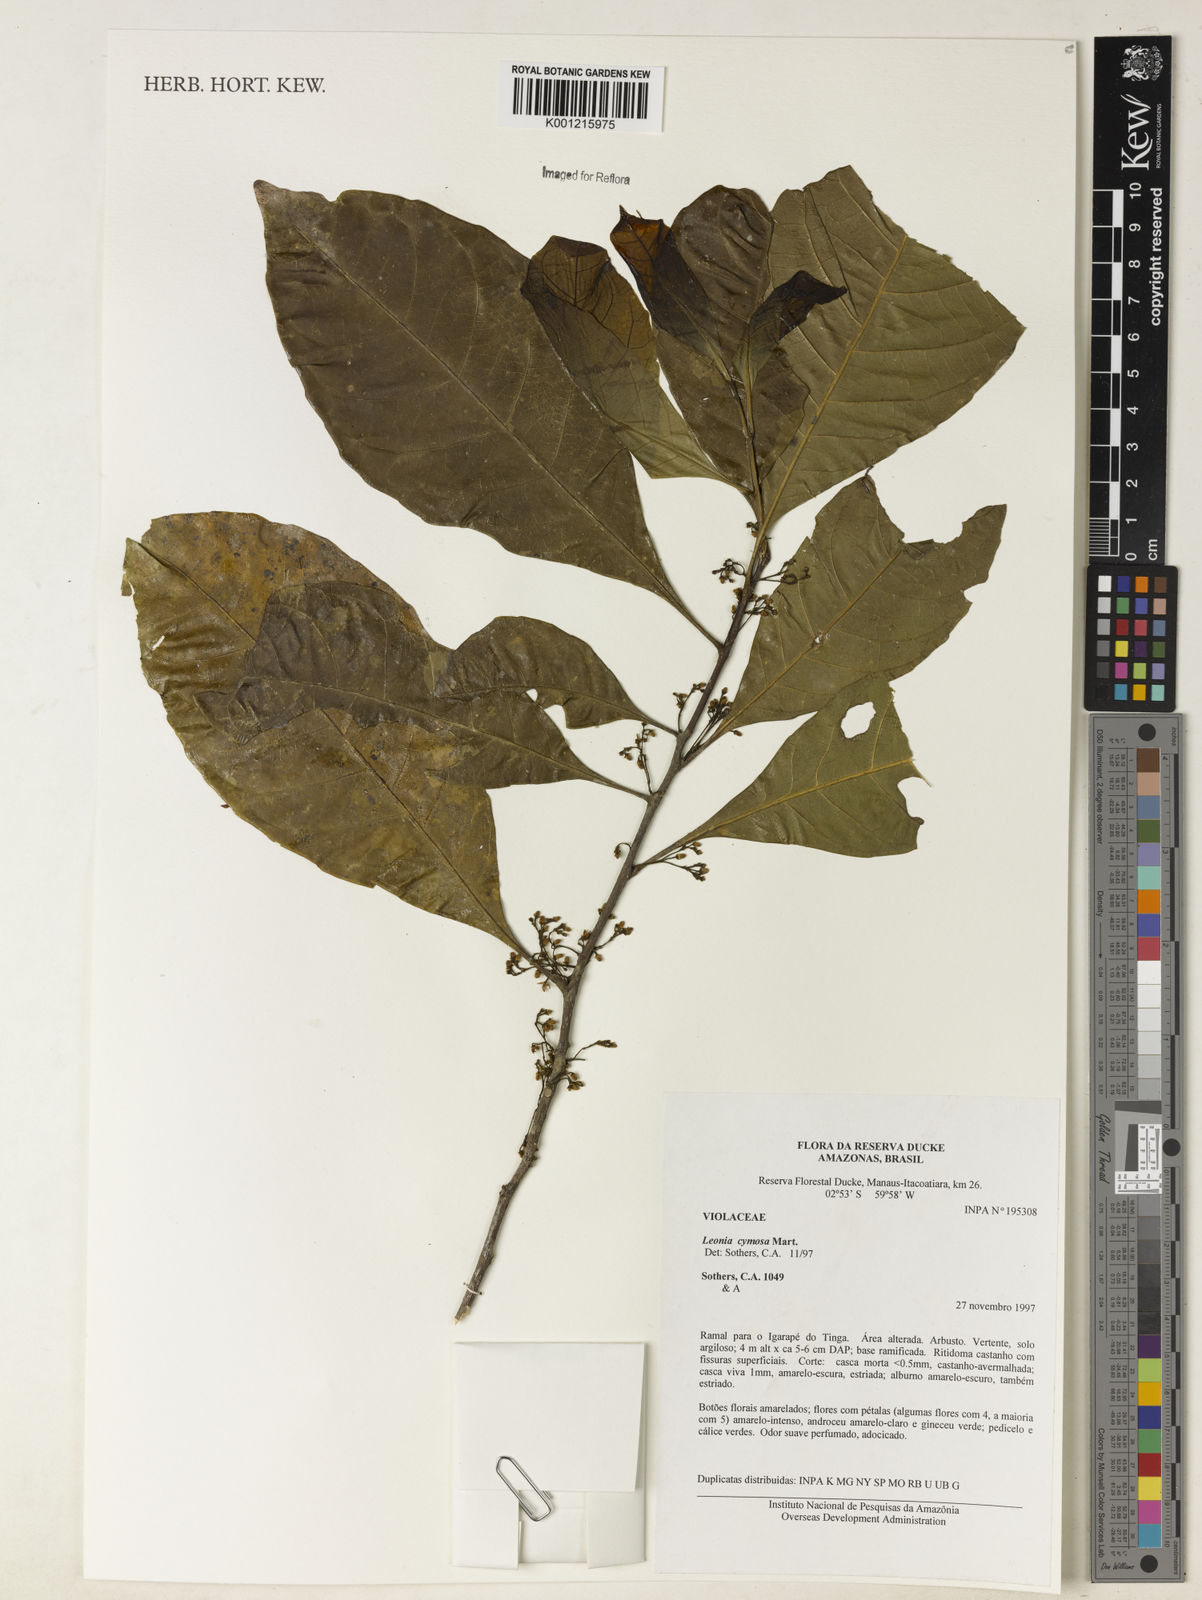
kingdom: Plantae
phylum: Tracheophyta
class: Magnoliopsida
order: Malpighiales
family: Violaceae
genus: Leonia
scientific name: Leonia cymosa
